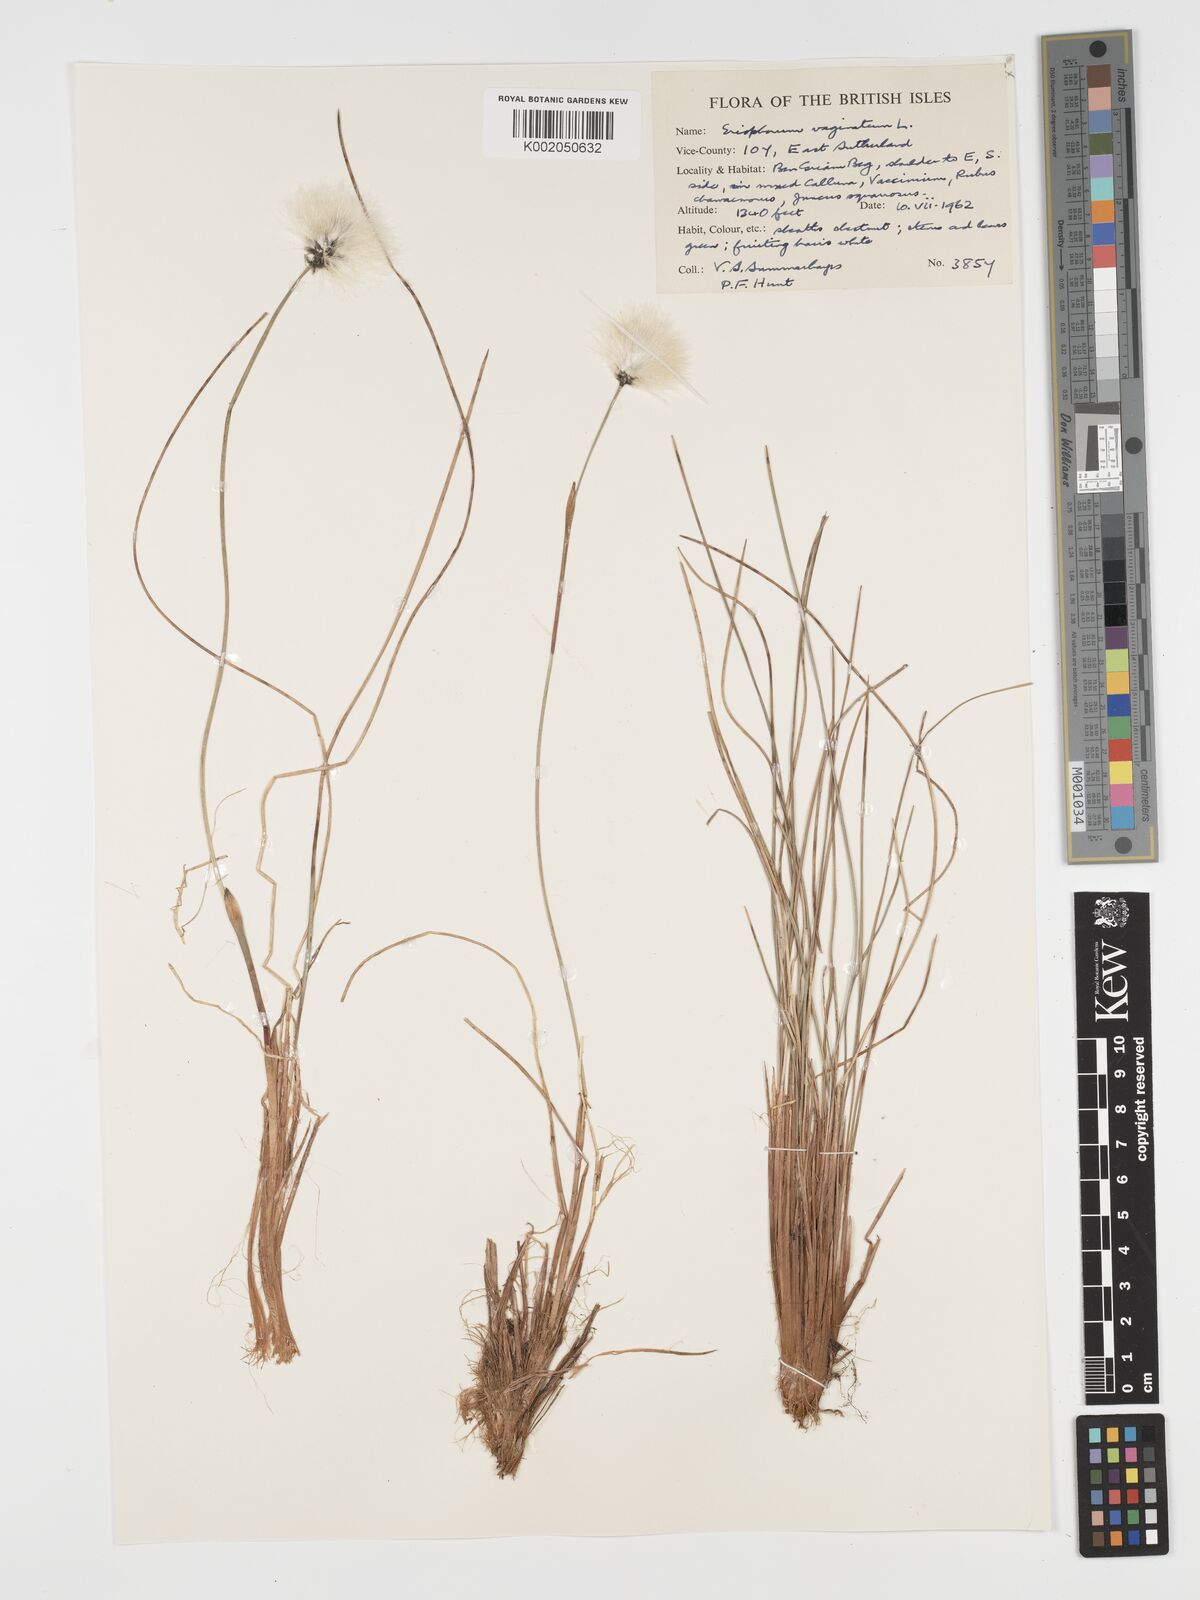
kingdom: Plantae
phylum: Tracheophyta
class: Liliopsida
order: Poales
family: Cyperaceae
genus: Eriophorum
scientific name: Eriophorum vaginatum
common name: Hare's-tail cottongrass
